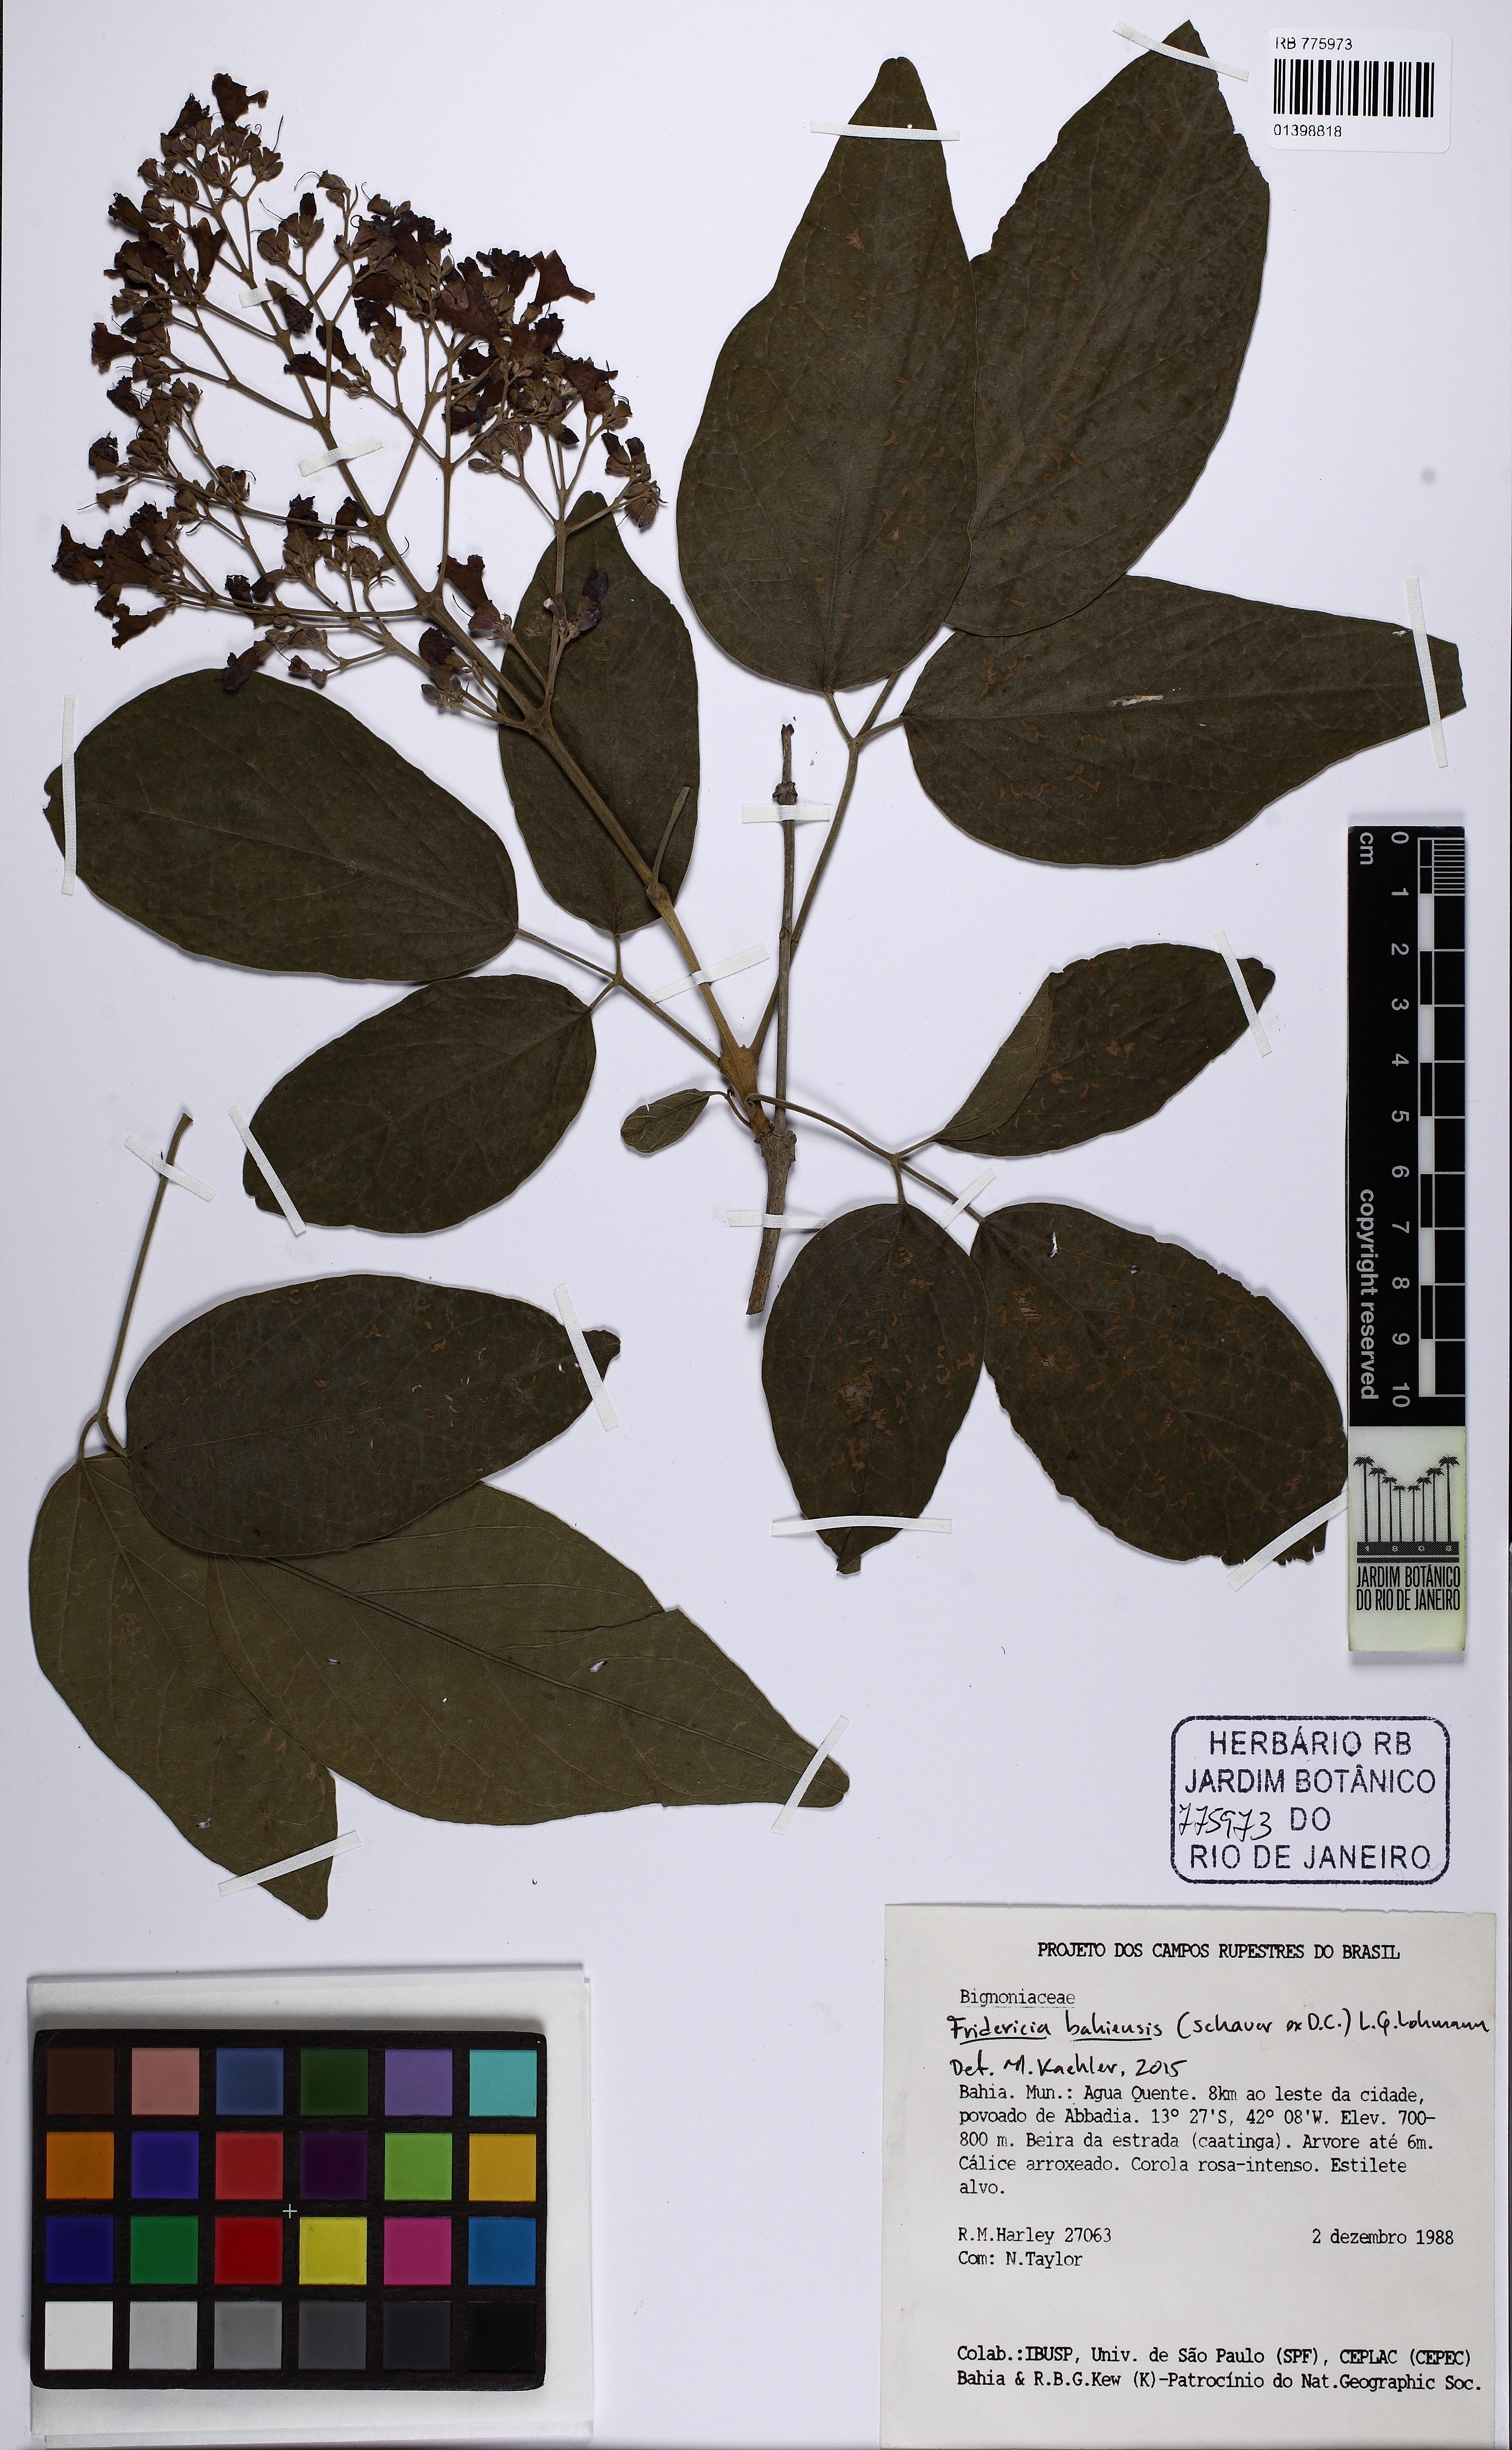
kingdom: Plantae
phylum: Tracheophyta
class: Magnoliopsida
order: Lamiales
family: Bignoniaceae
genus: Fridericia
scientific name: Fridericia bahiensis
